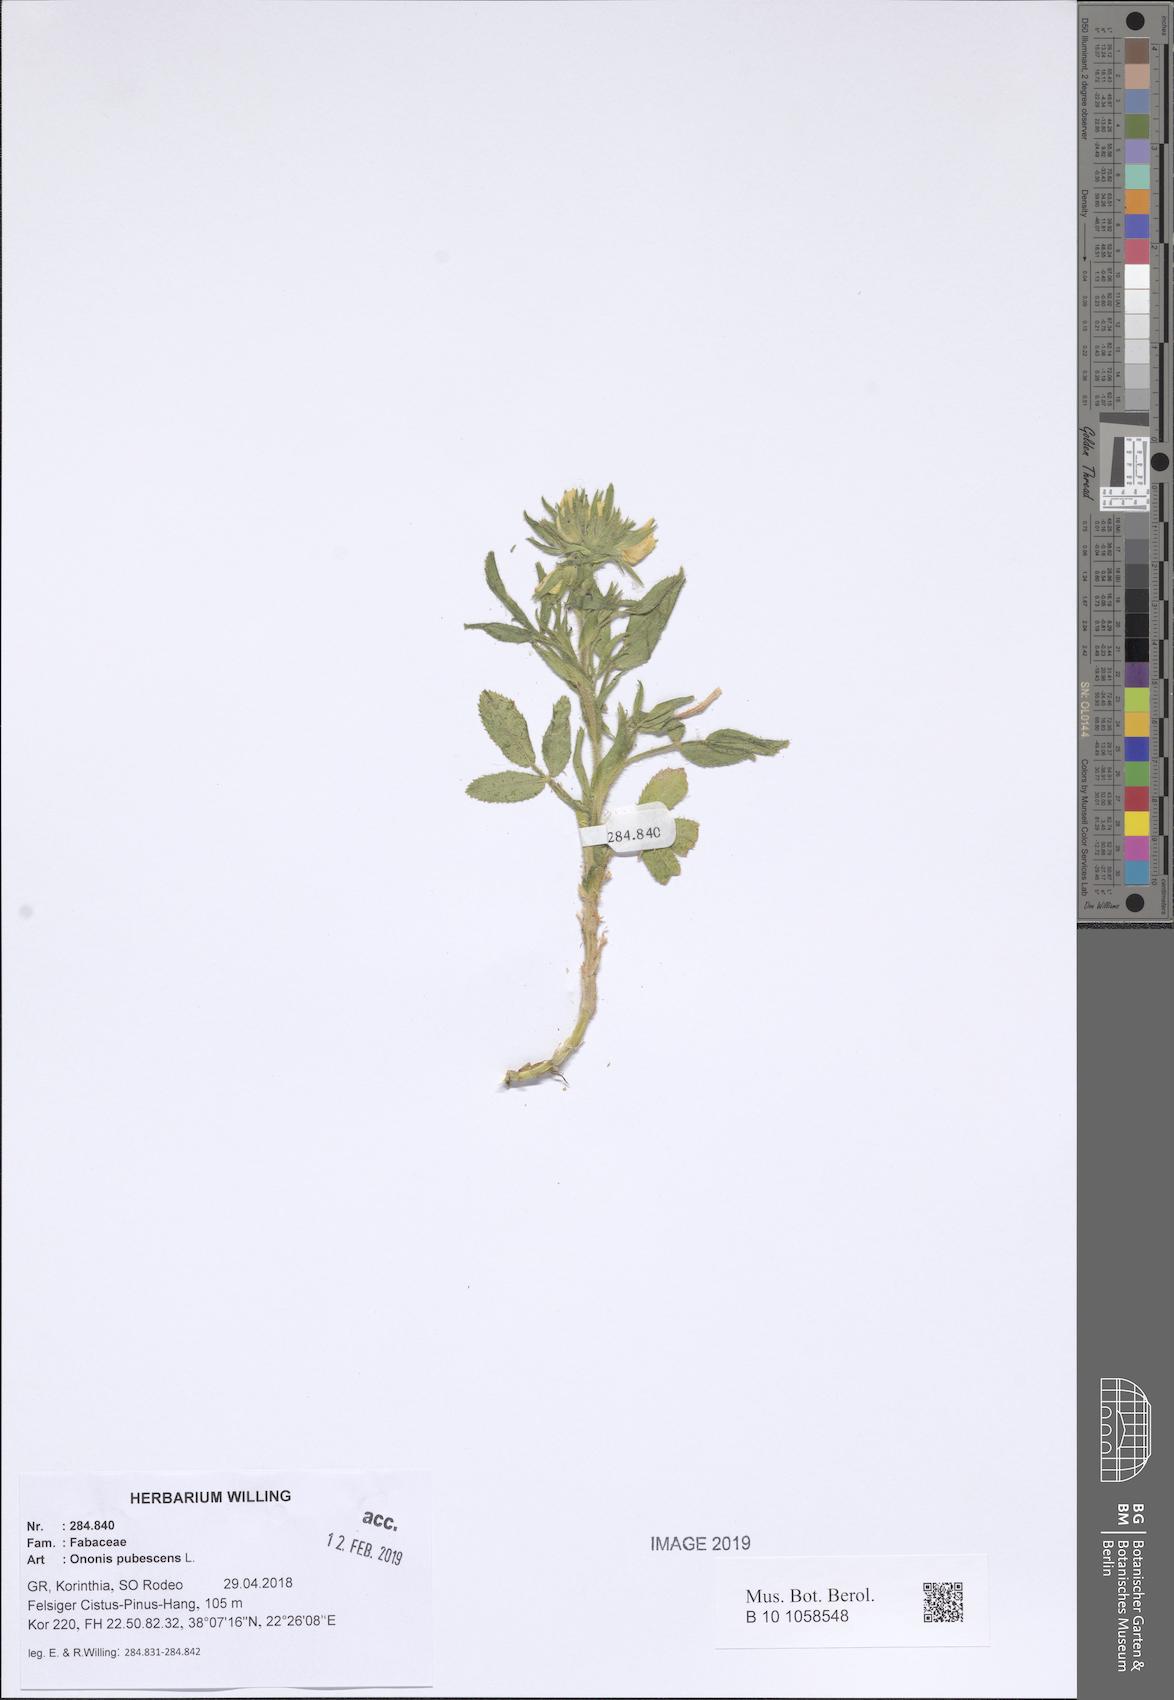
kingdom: Plantae
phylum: Tracheophyta
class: Magnoliopsida
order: Fabales
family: Fabaceae
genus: Ononis
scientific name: Ononis pubescens
